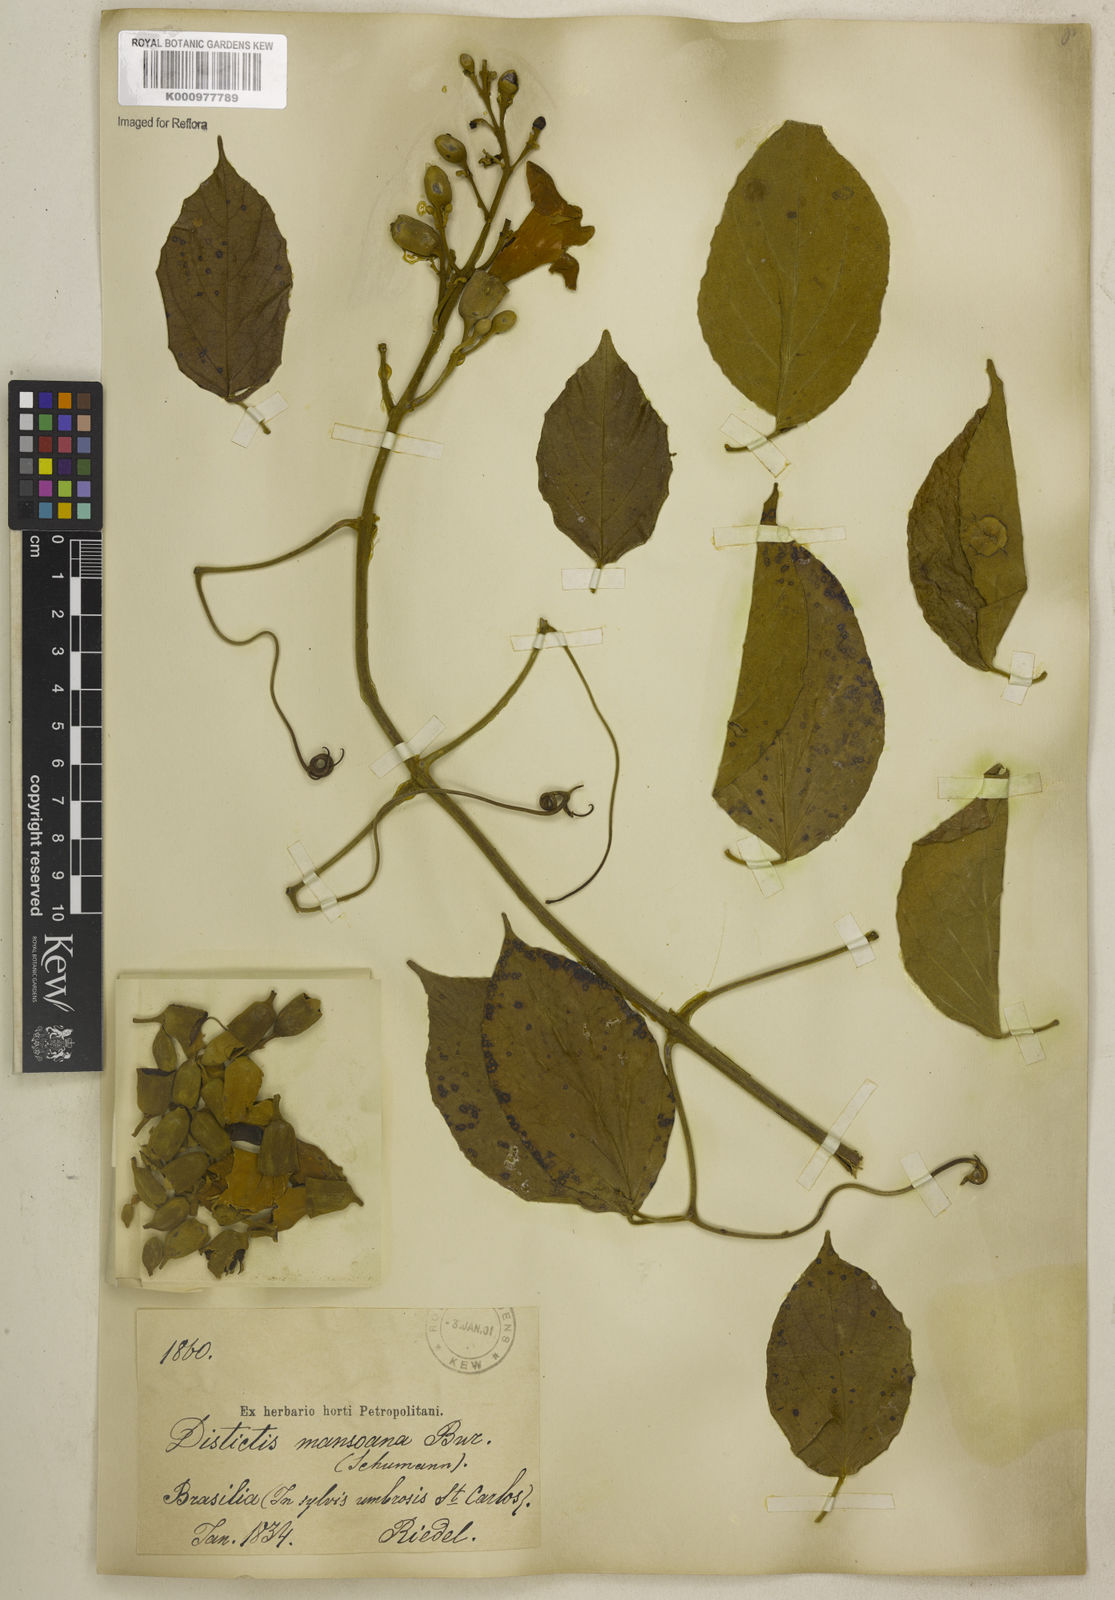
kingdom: Plantae
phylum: Tracheophyta
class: Magnoliopsida
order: Lamiales
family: Bignoniaceae
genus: Amphilophium
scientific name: Amphilophium mansoanum
